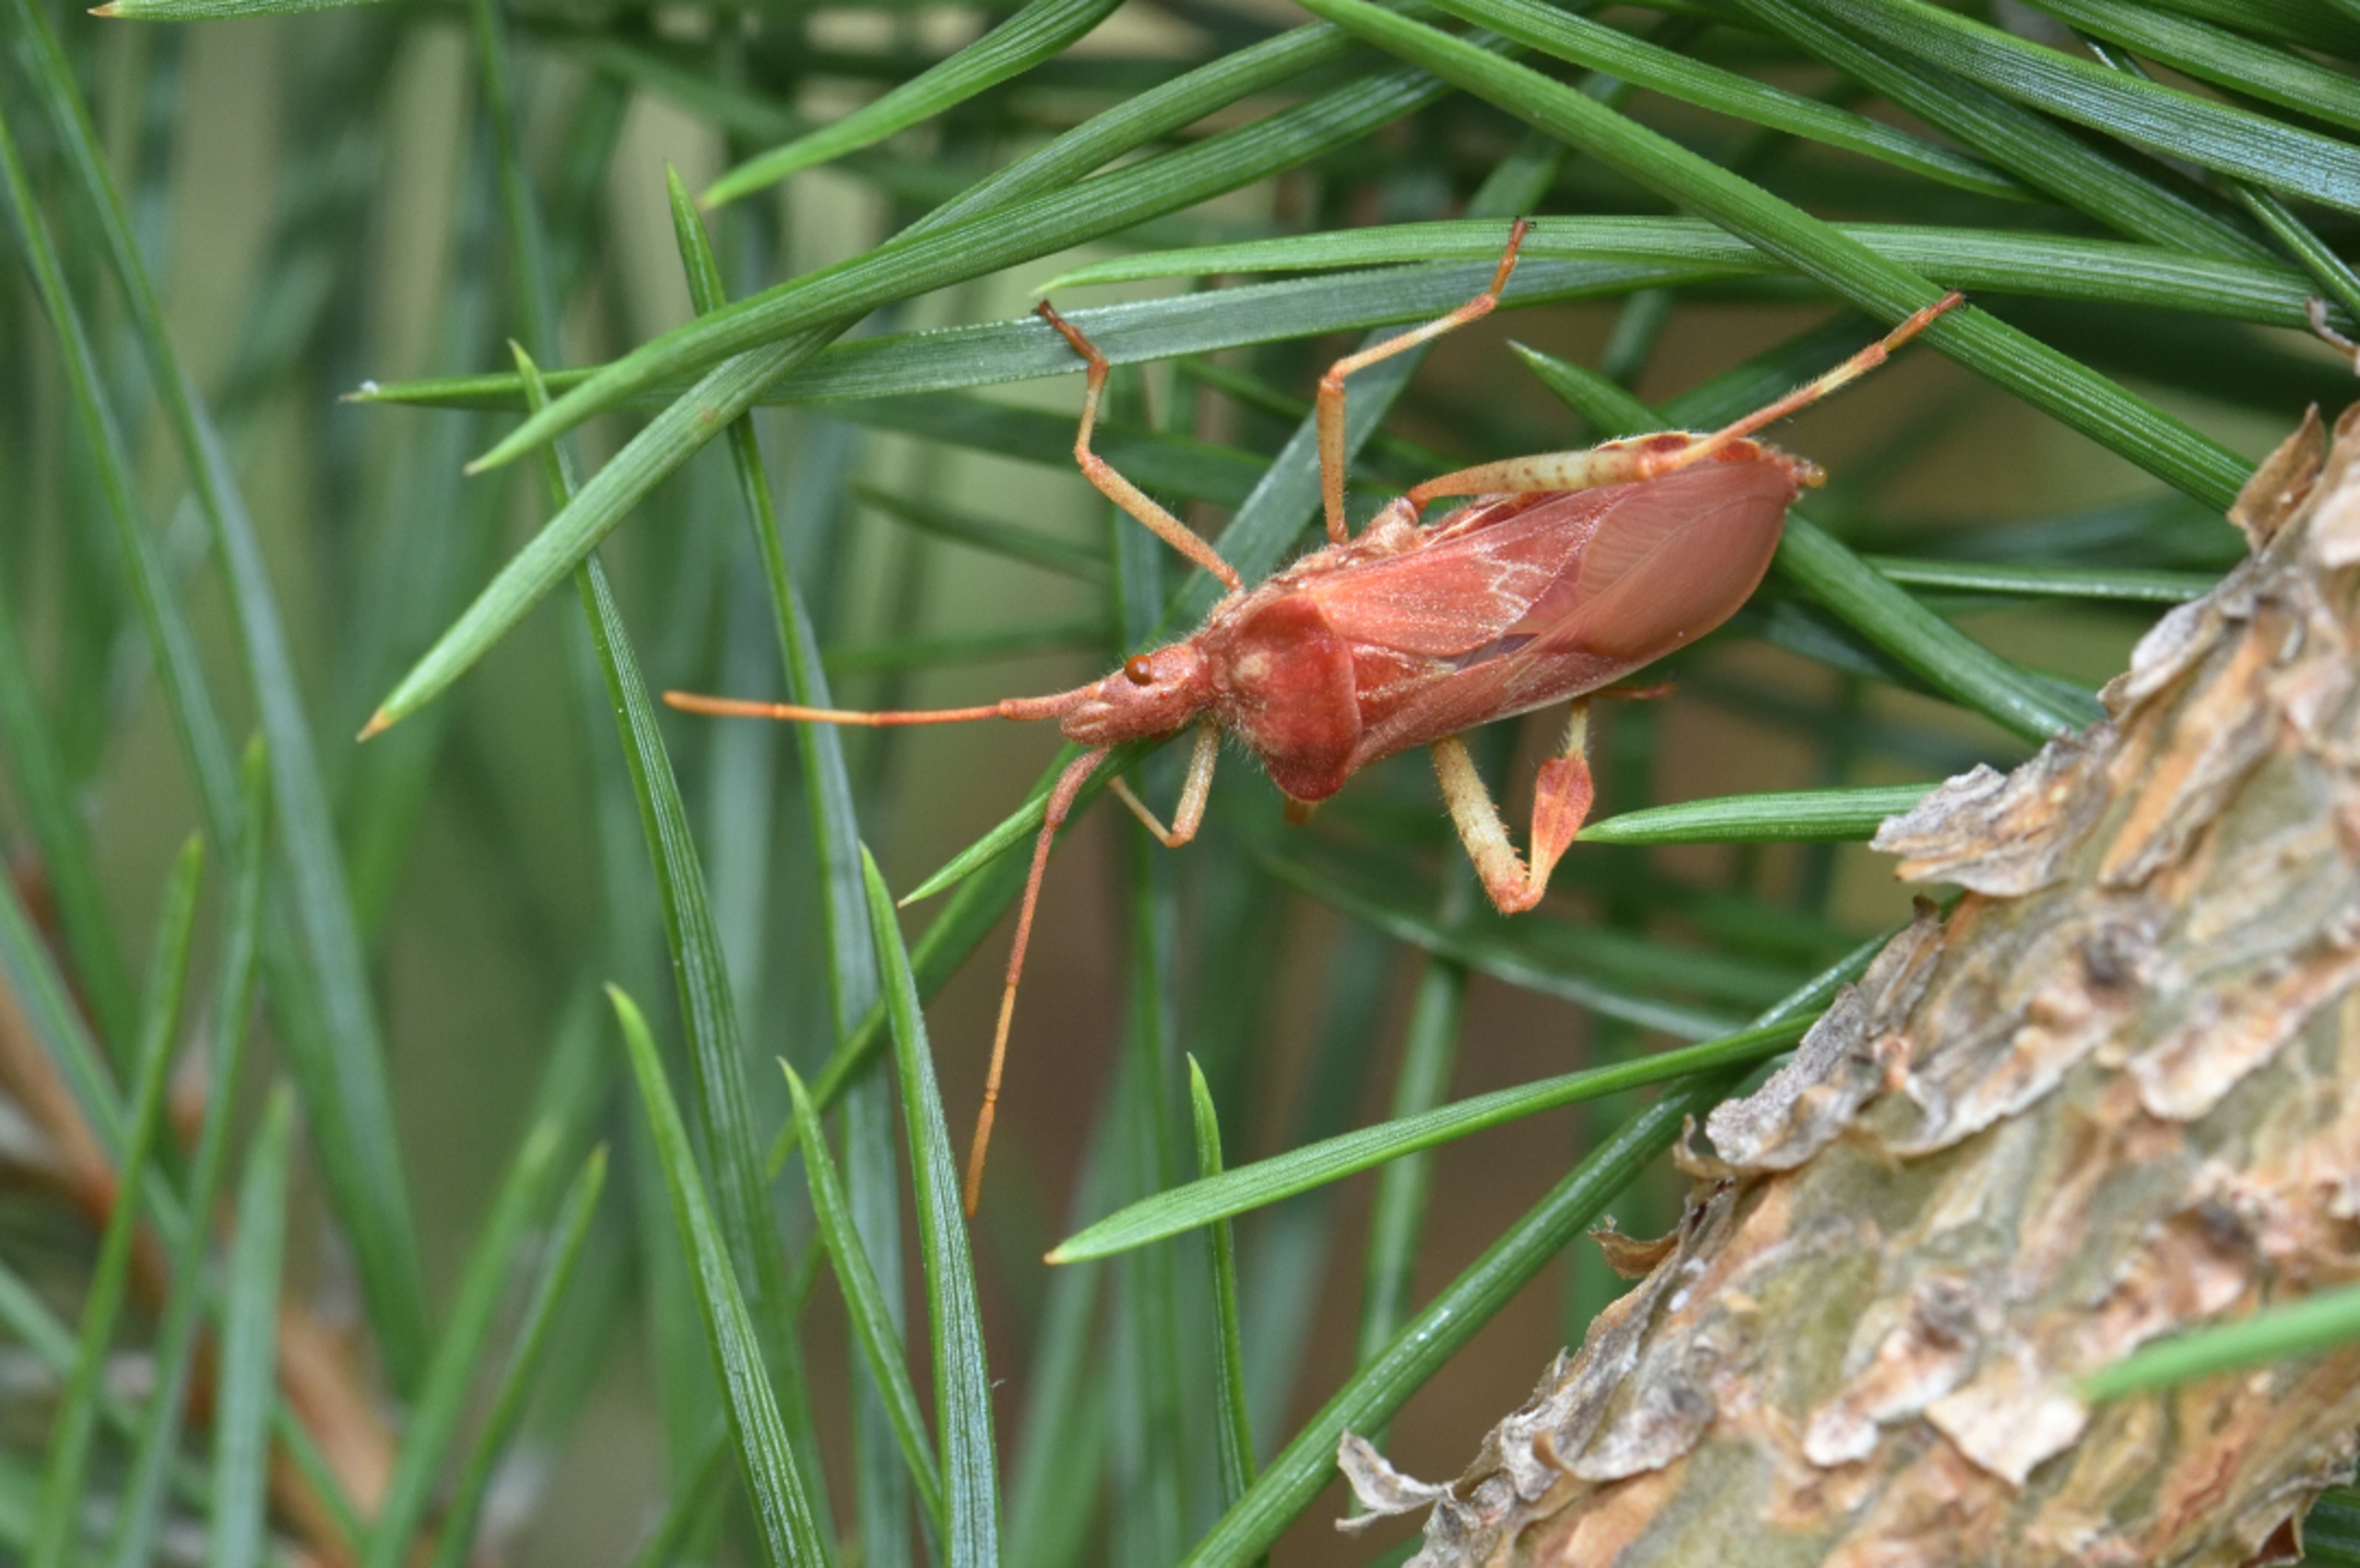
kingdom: Animalia
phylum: Arthropoda
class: Insecta
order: Hemiptera
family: Coreidae
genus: Leptoglossus
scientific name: Leptoglossus occidentalis
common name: Amerikansk fyrretæge
